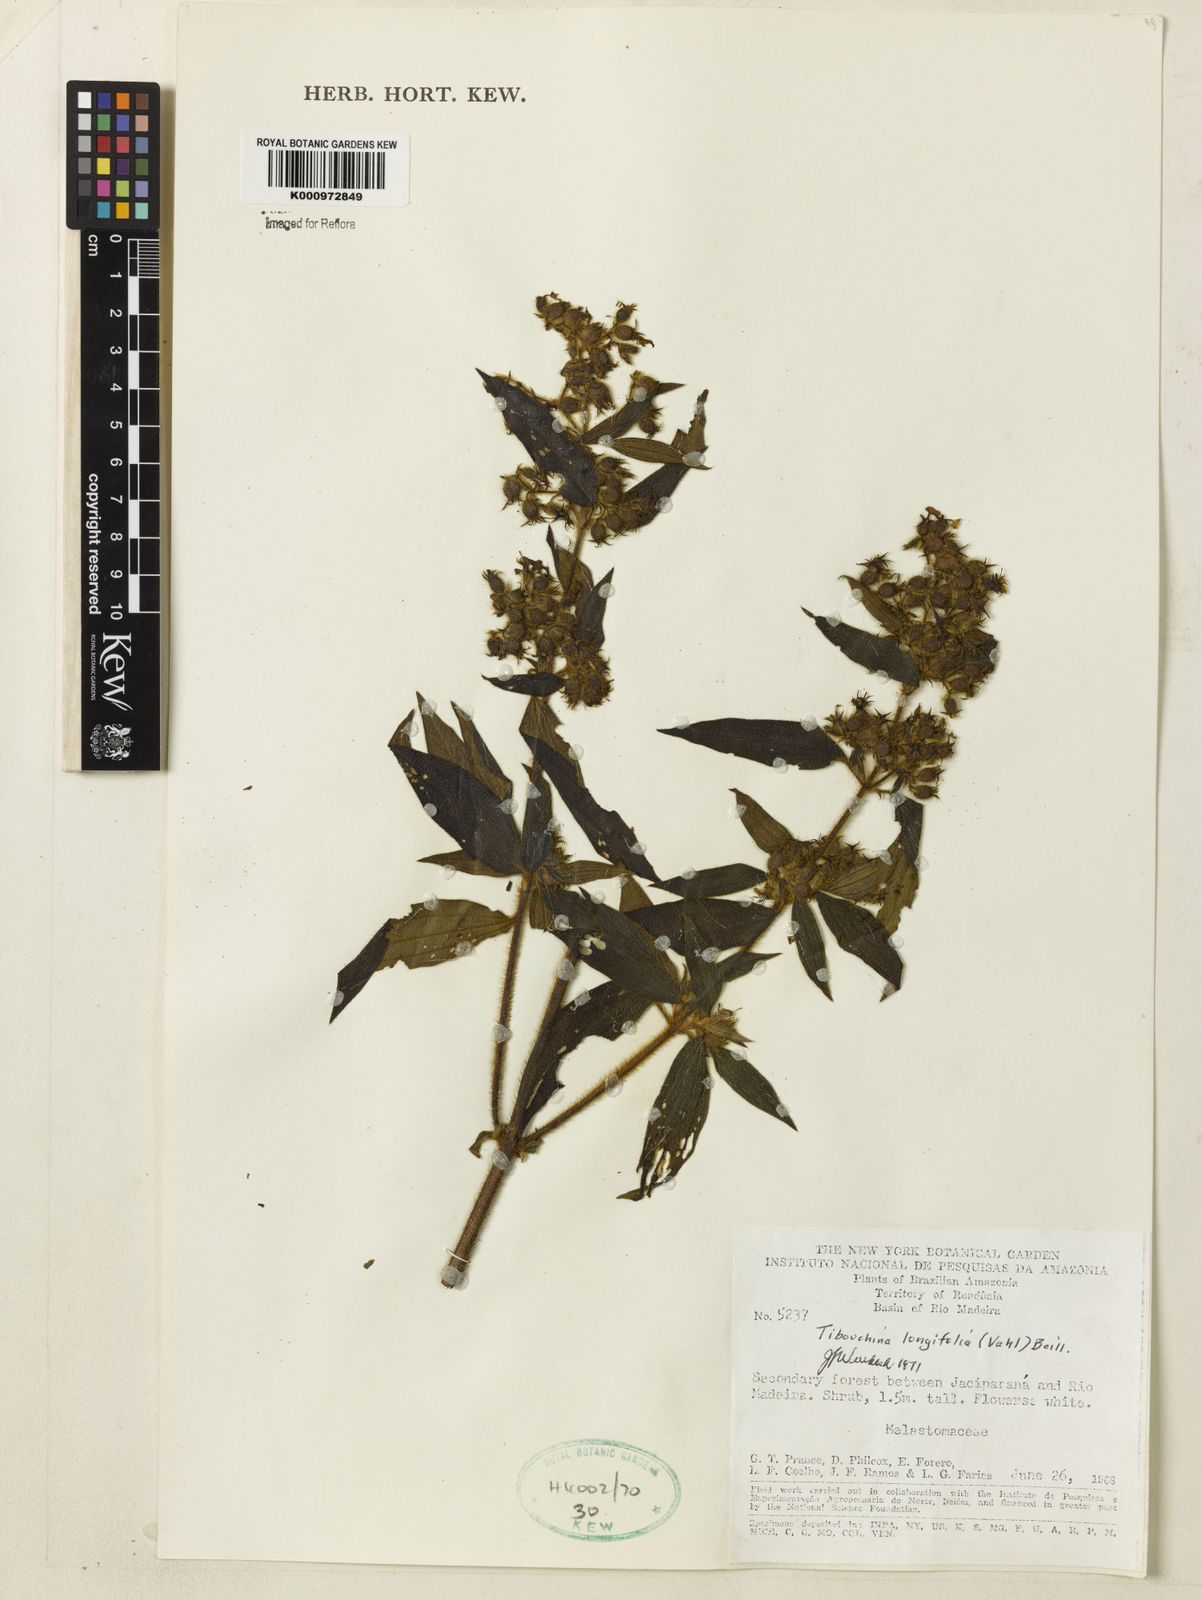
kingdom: Plantae
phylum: Tracheophyta
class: Magnoliopsida
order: Myrtales
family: Melastomataceae
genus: Chaetogastra
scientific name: Chaetogastra longifolia
